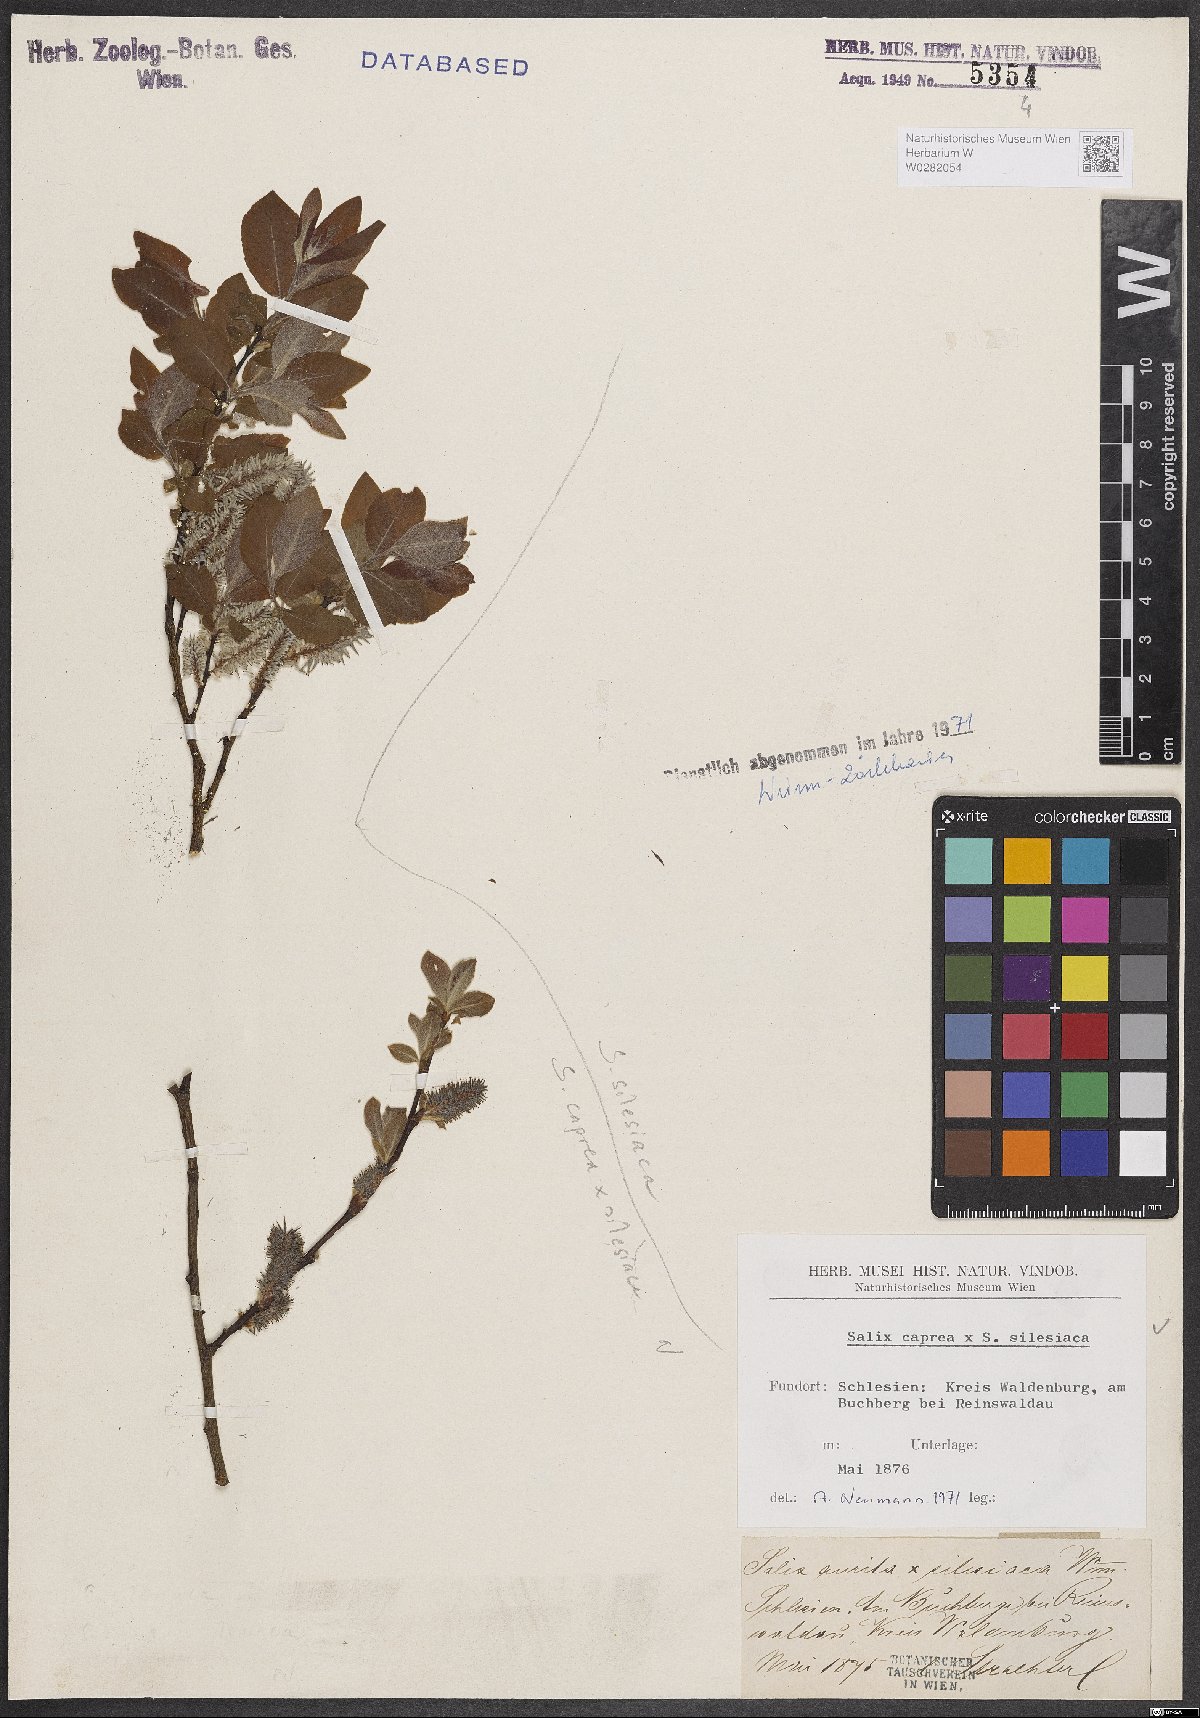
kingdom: Plantae
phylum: Tracheophyta
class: Magnoliopsida
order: Malpighiales
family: Salicaceae
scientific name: Salicaceae
